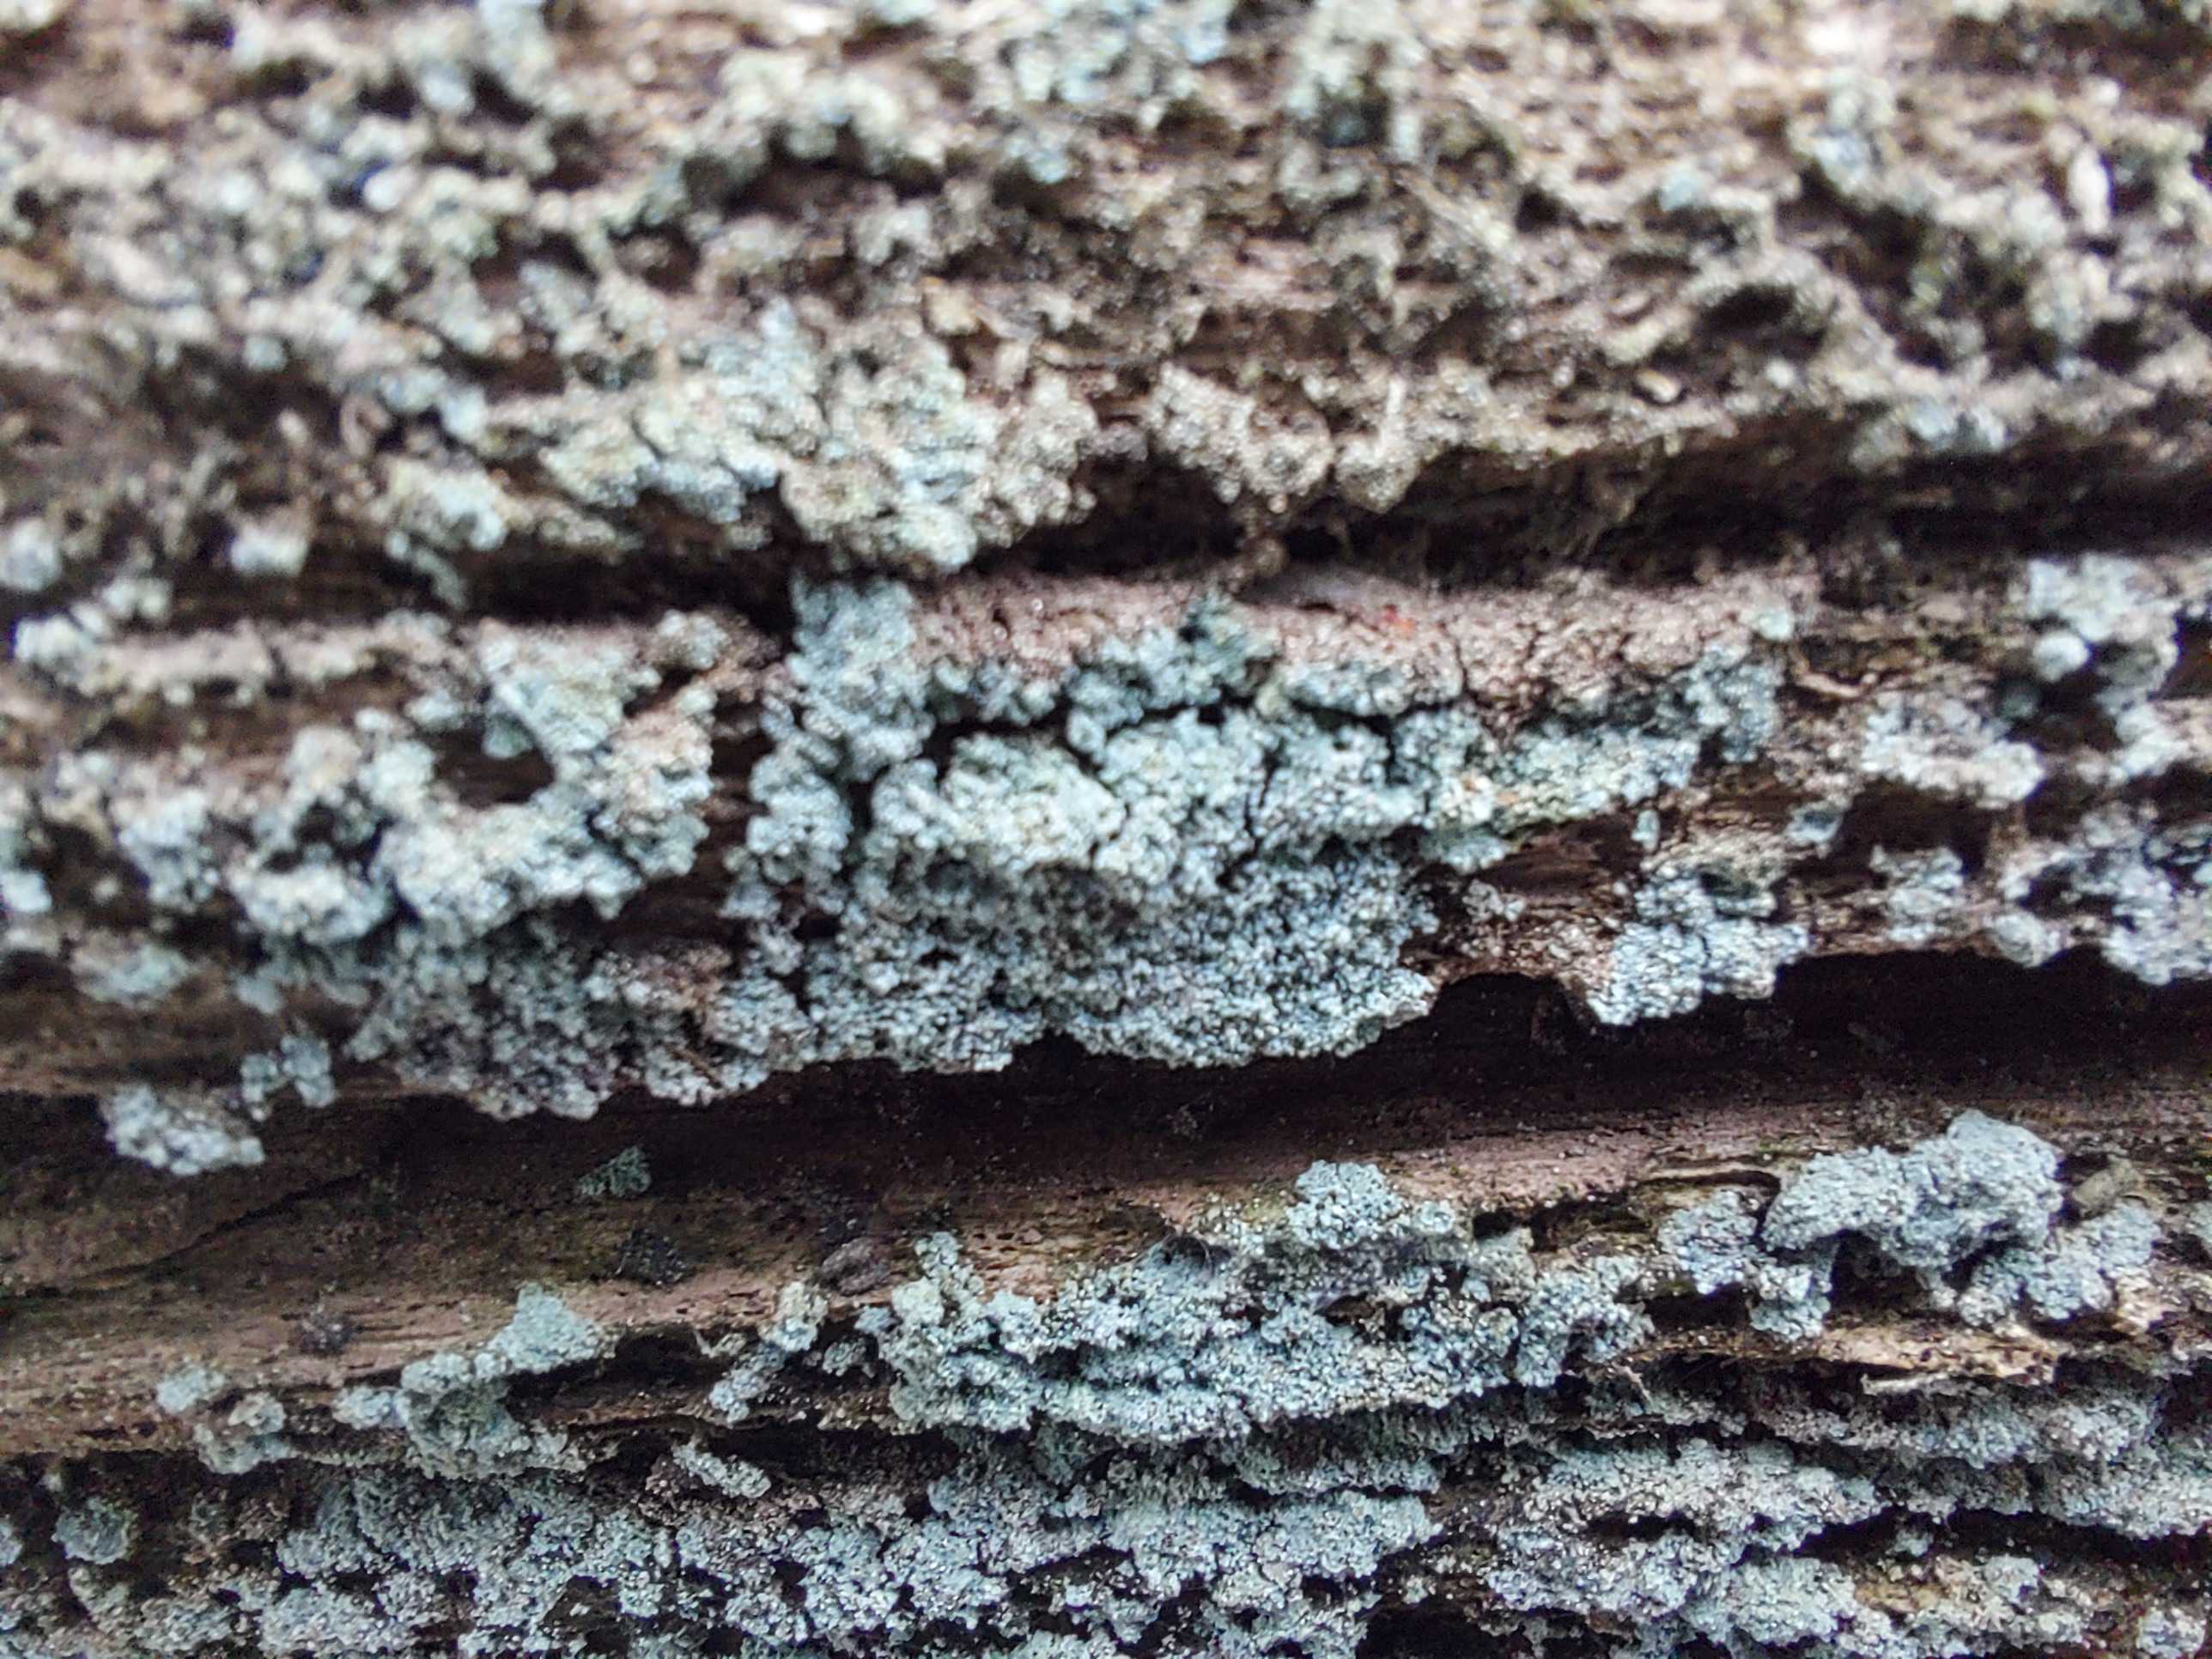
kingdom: Fungi
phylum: Ascomycota
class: Lecanoromycetes
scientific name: Lecanoromycetes
